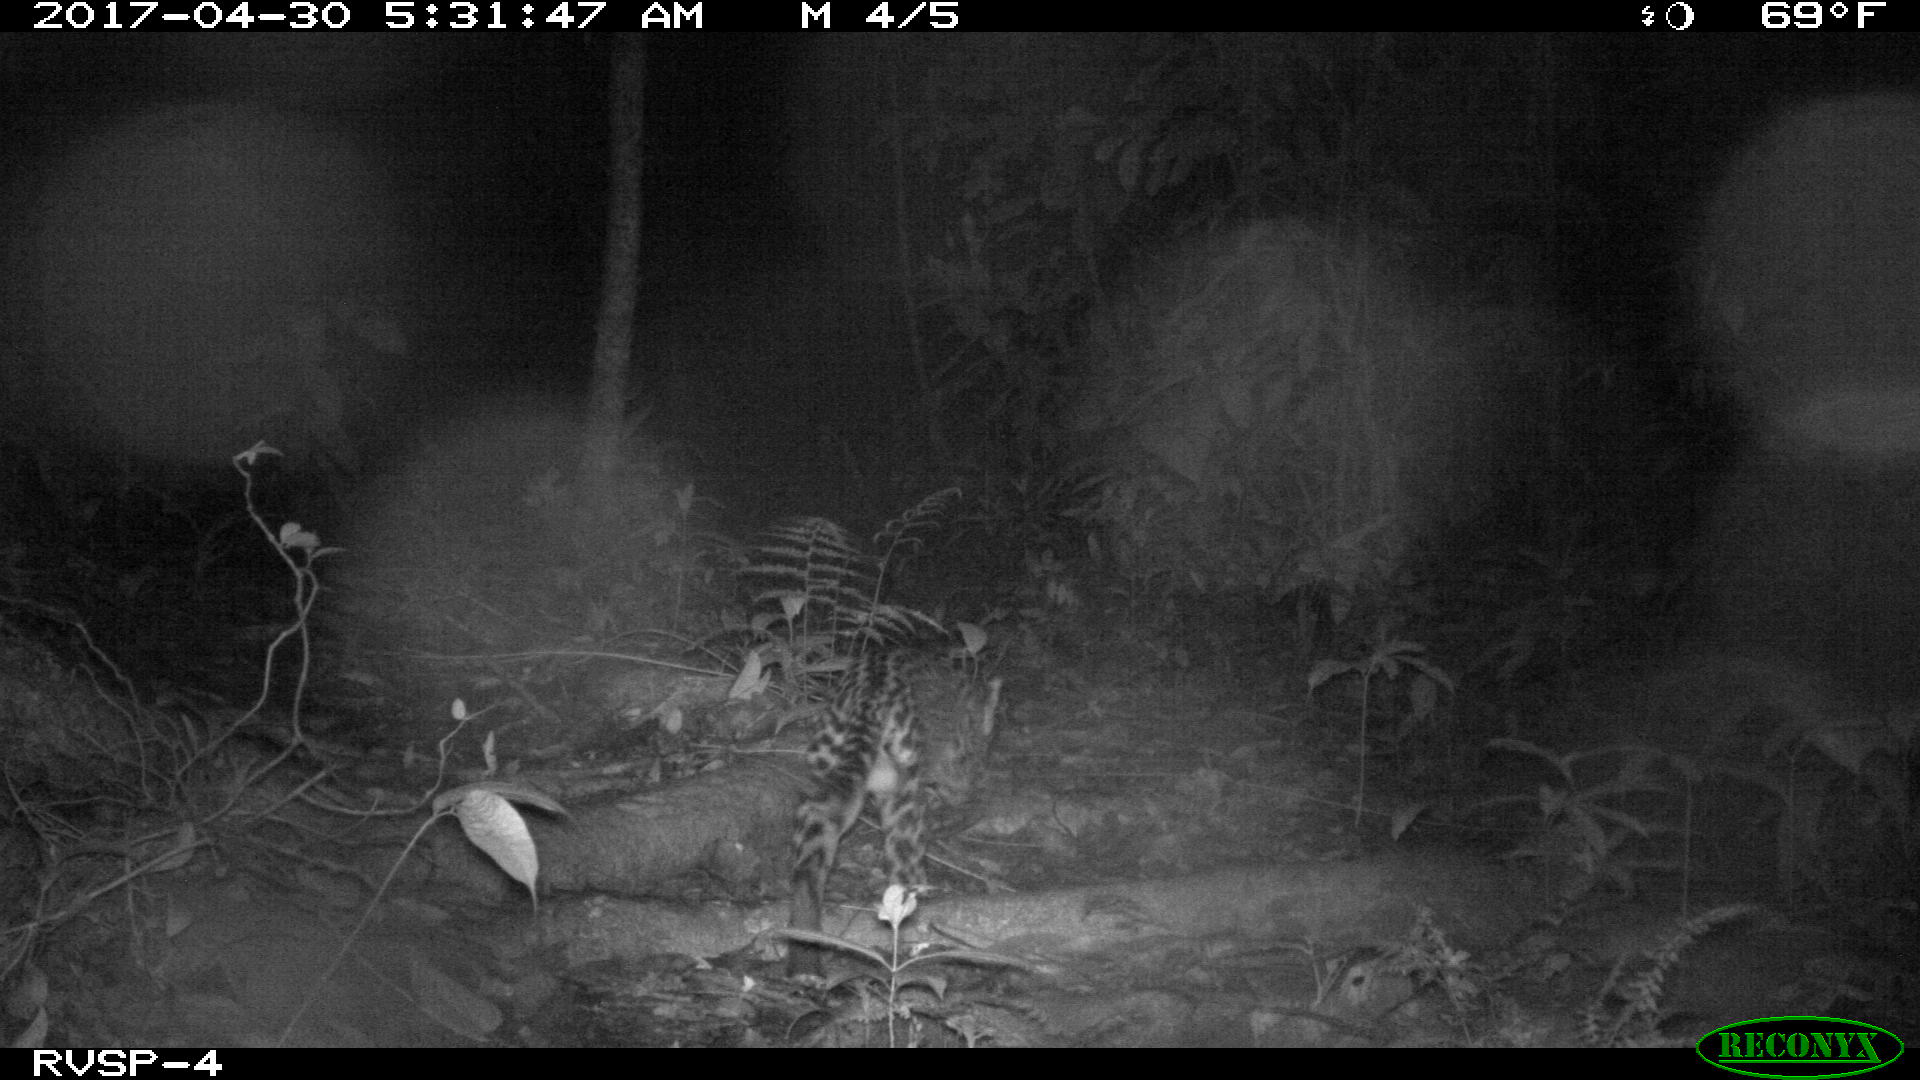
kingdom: Animalia
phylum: Chordata
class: Mammalia
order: Carnivora
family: Felidae
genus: Leopardus
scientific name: Leopardus pardalis
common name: Ocelot
